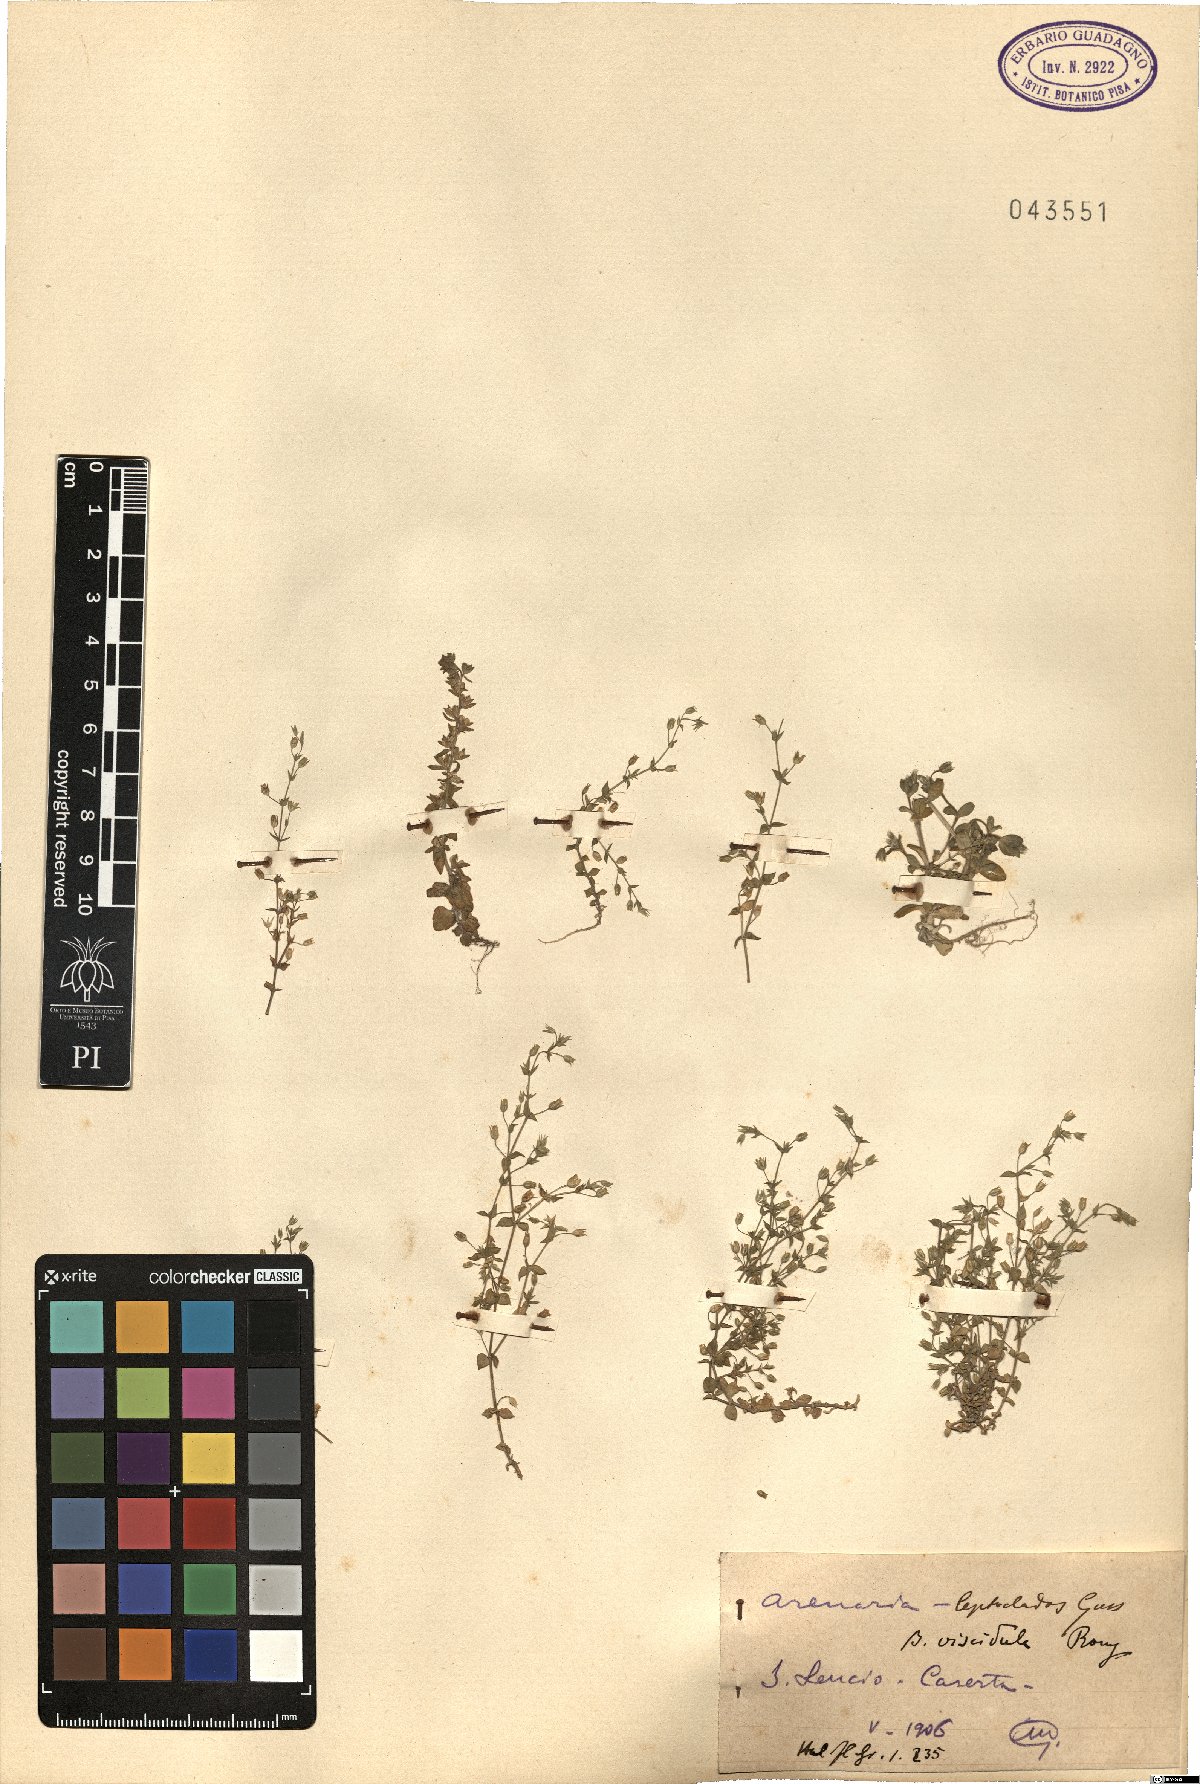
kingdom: Plantae
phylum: Tracheophyta
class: Magnoliopsida
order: Caryophyllales
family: Caryophyllaceae
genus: Arenaria
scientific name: Arenaria leptoclados
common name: Thyme-leaved sandwort
